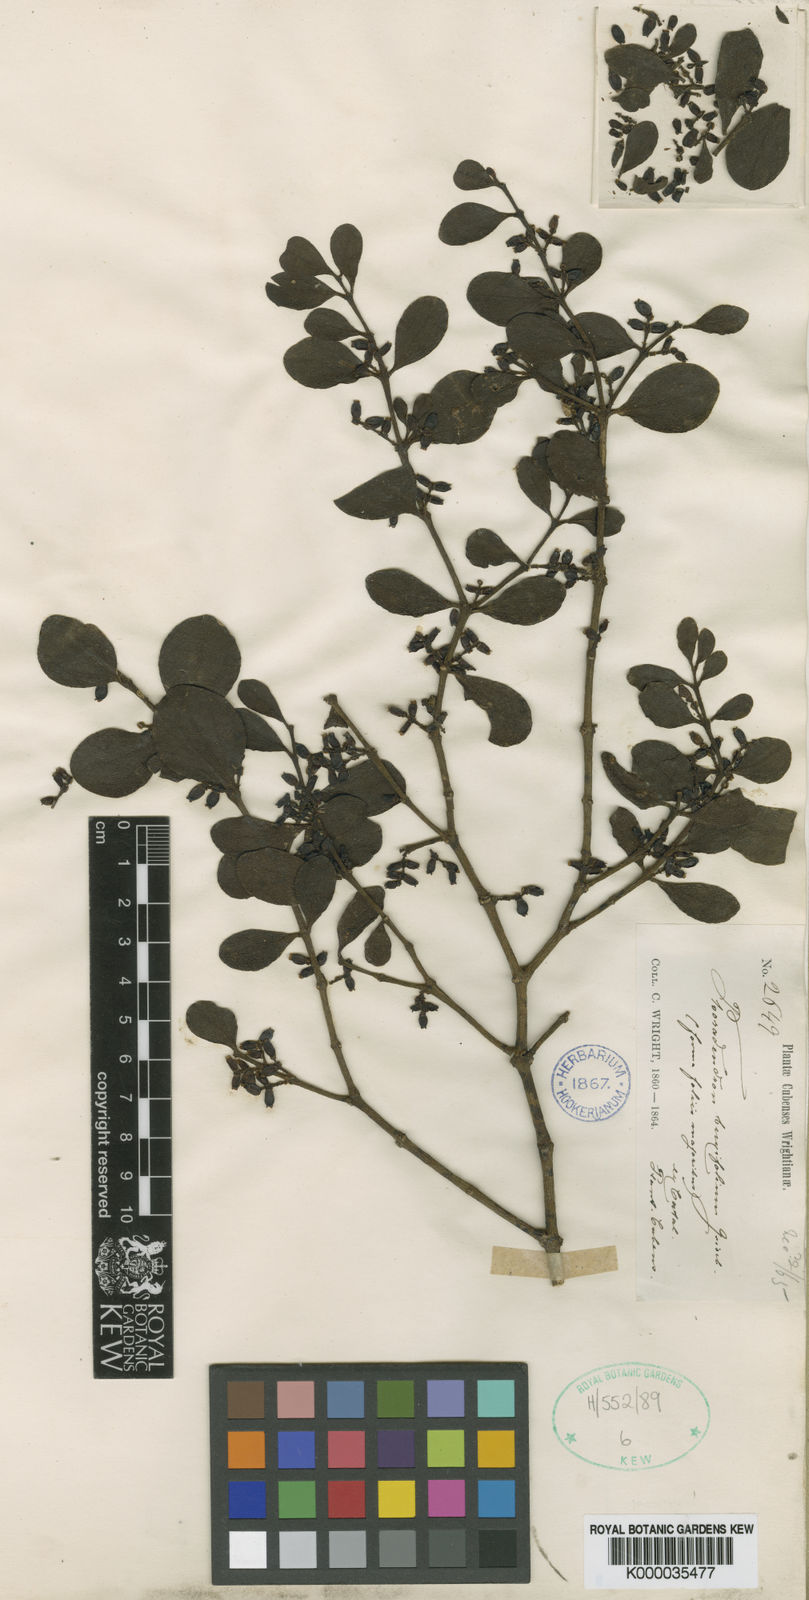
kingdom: Plantae
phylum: Tracheophyta
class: Magnoliopsida
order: Santalales
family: Viscaceae
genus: Dendrophthora
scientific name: Dendrophthora
